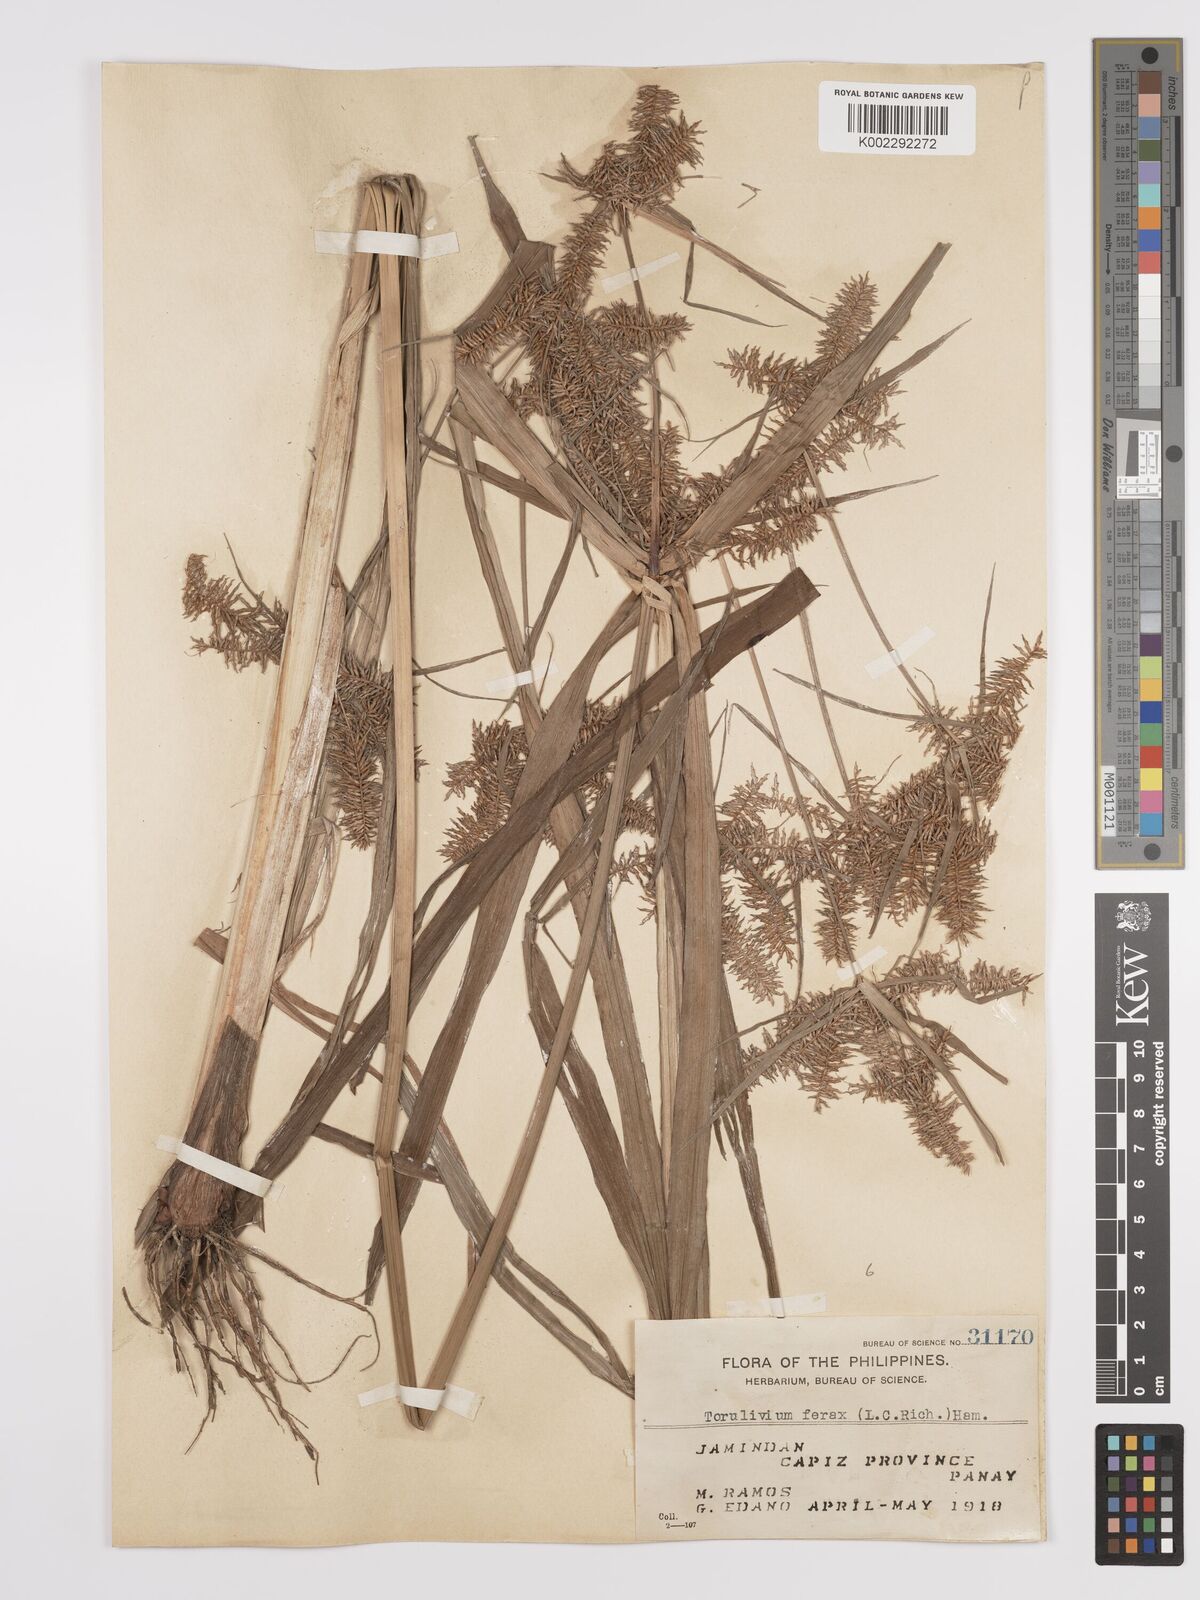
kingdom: Plantae
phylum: Tracheophyta
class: Liliopsida
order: Poales
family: Cyperaceae
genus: Cyperus
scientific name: Cyperus odoratus
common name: Fragrant flatsedge
